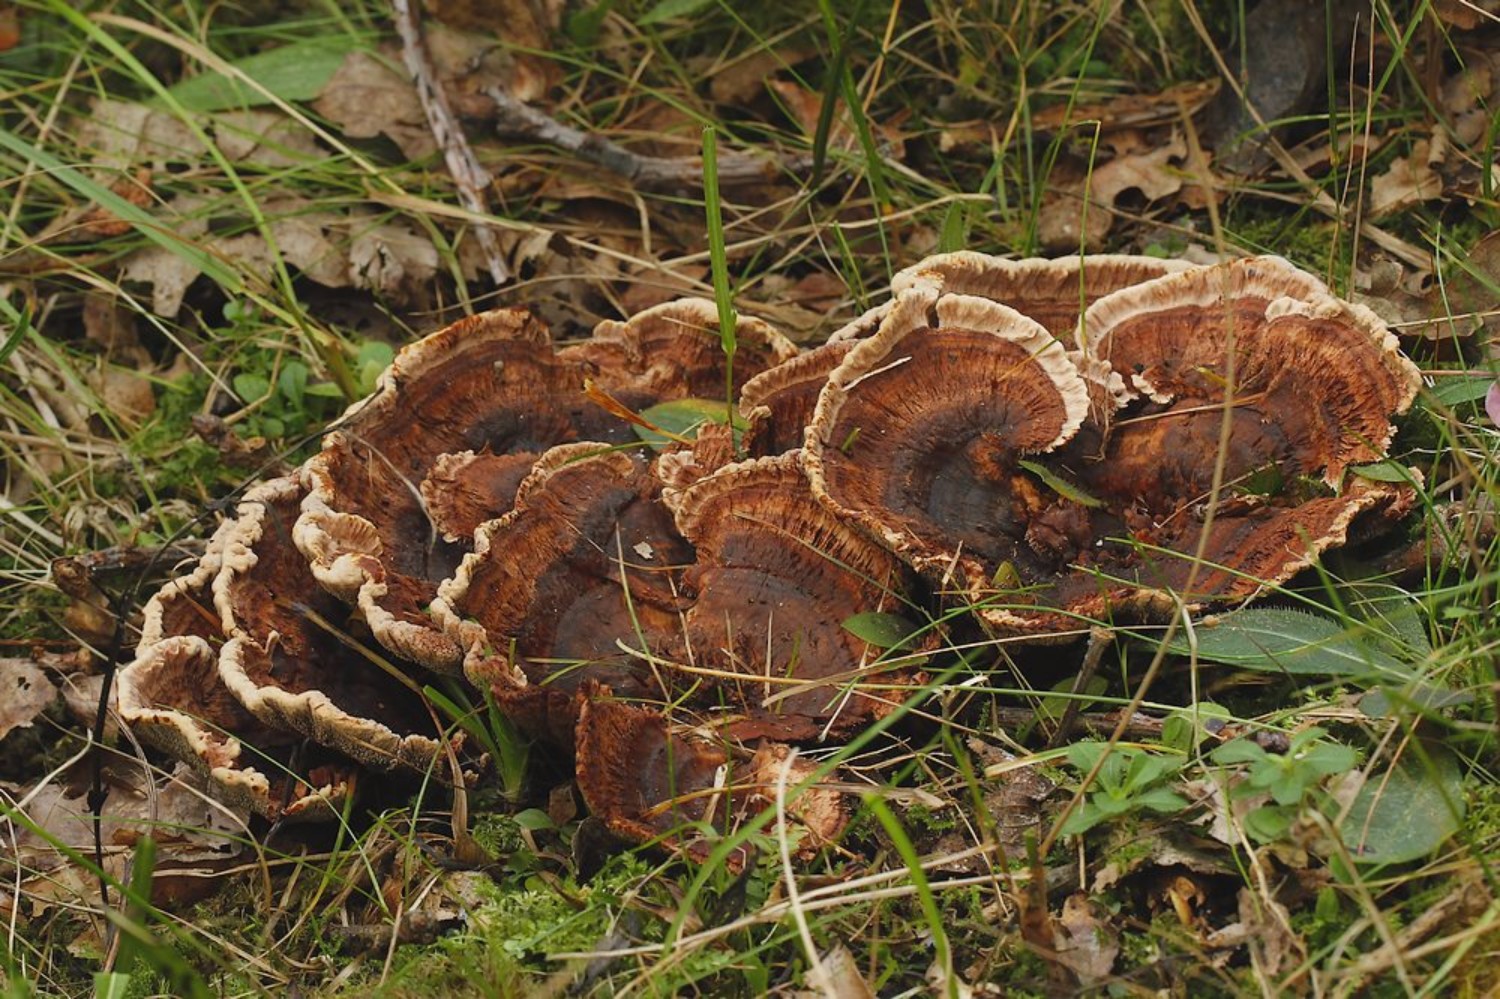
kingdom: Fungi
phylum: Basidiomycota
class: Agaricomycetes
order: Thelephorales
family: Bankeraceae
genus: Hydnellum
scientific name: Hydnellum concrescens
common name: bæltet korkpigsvamp
